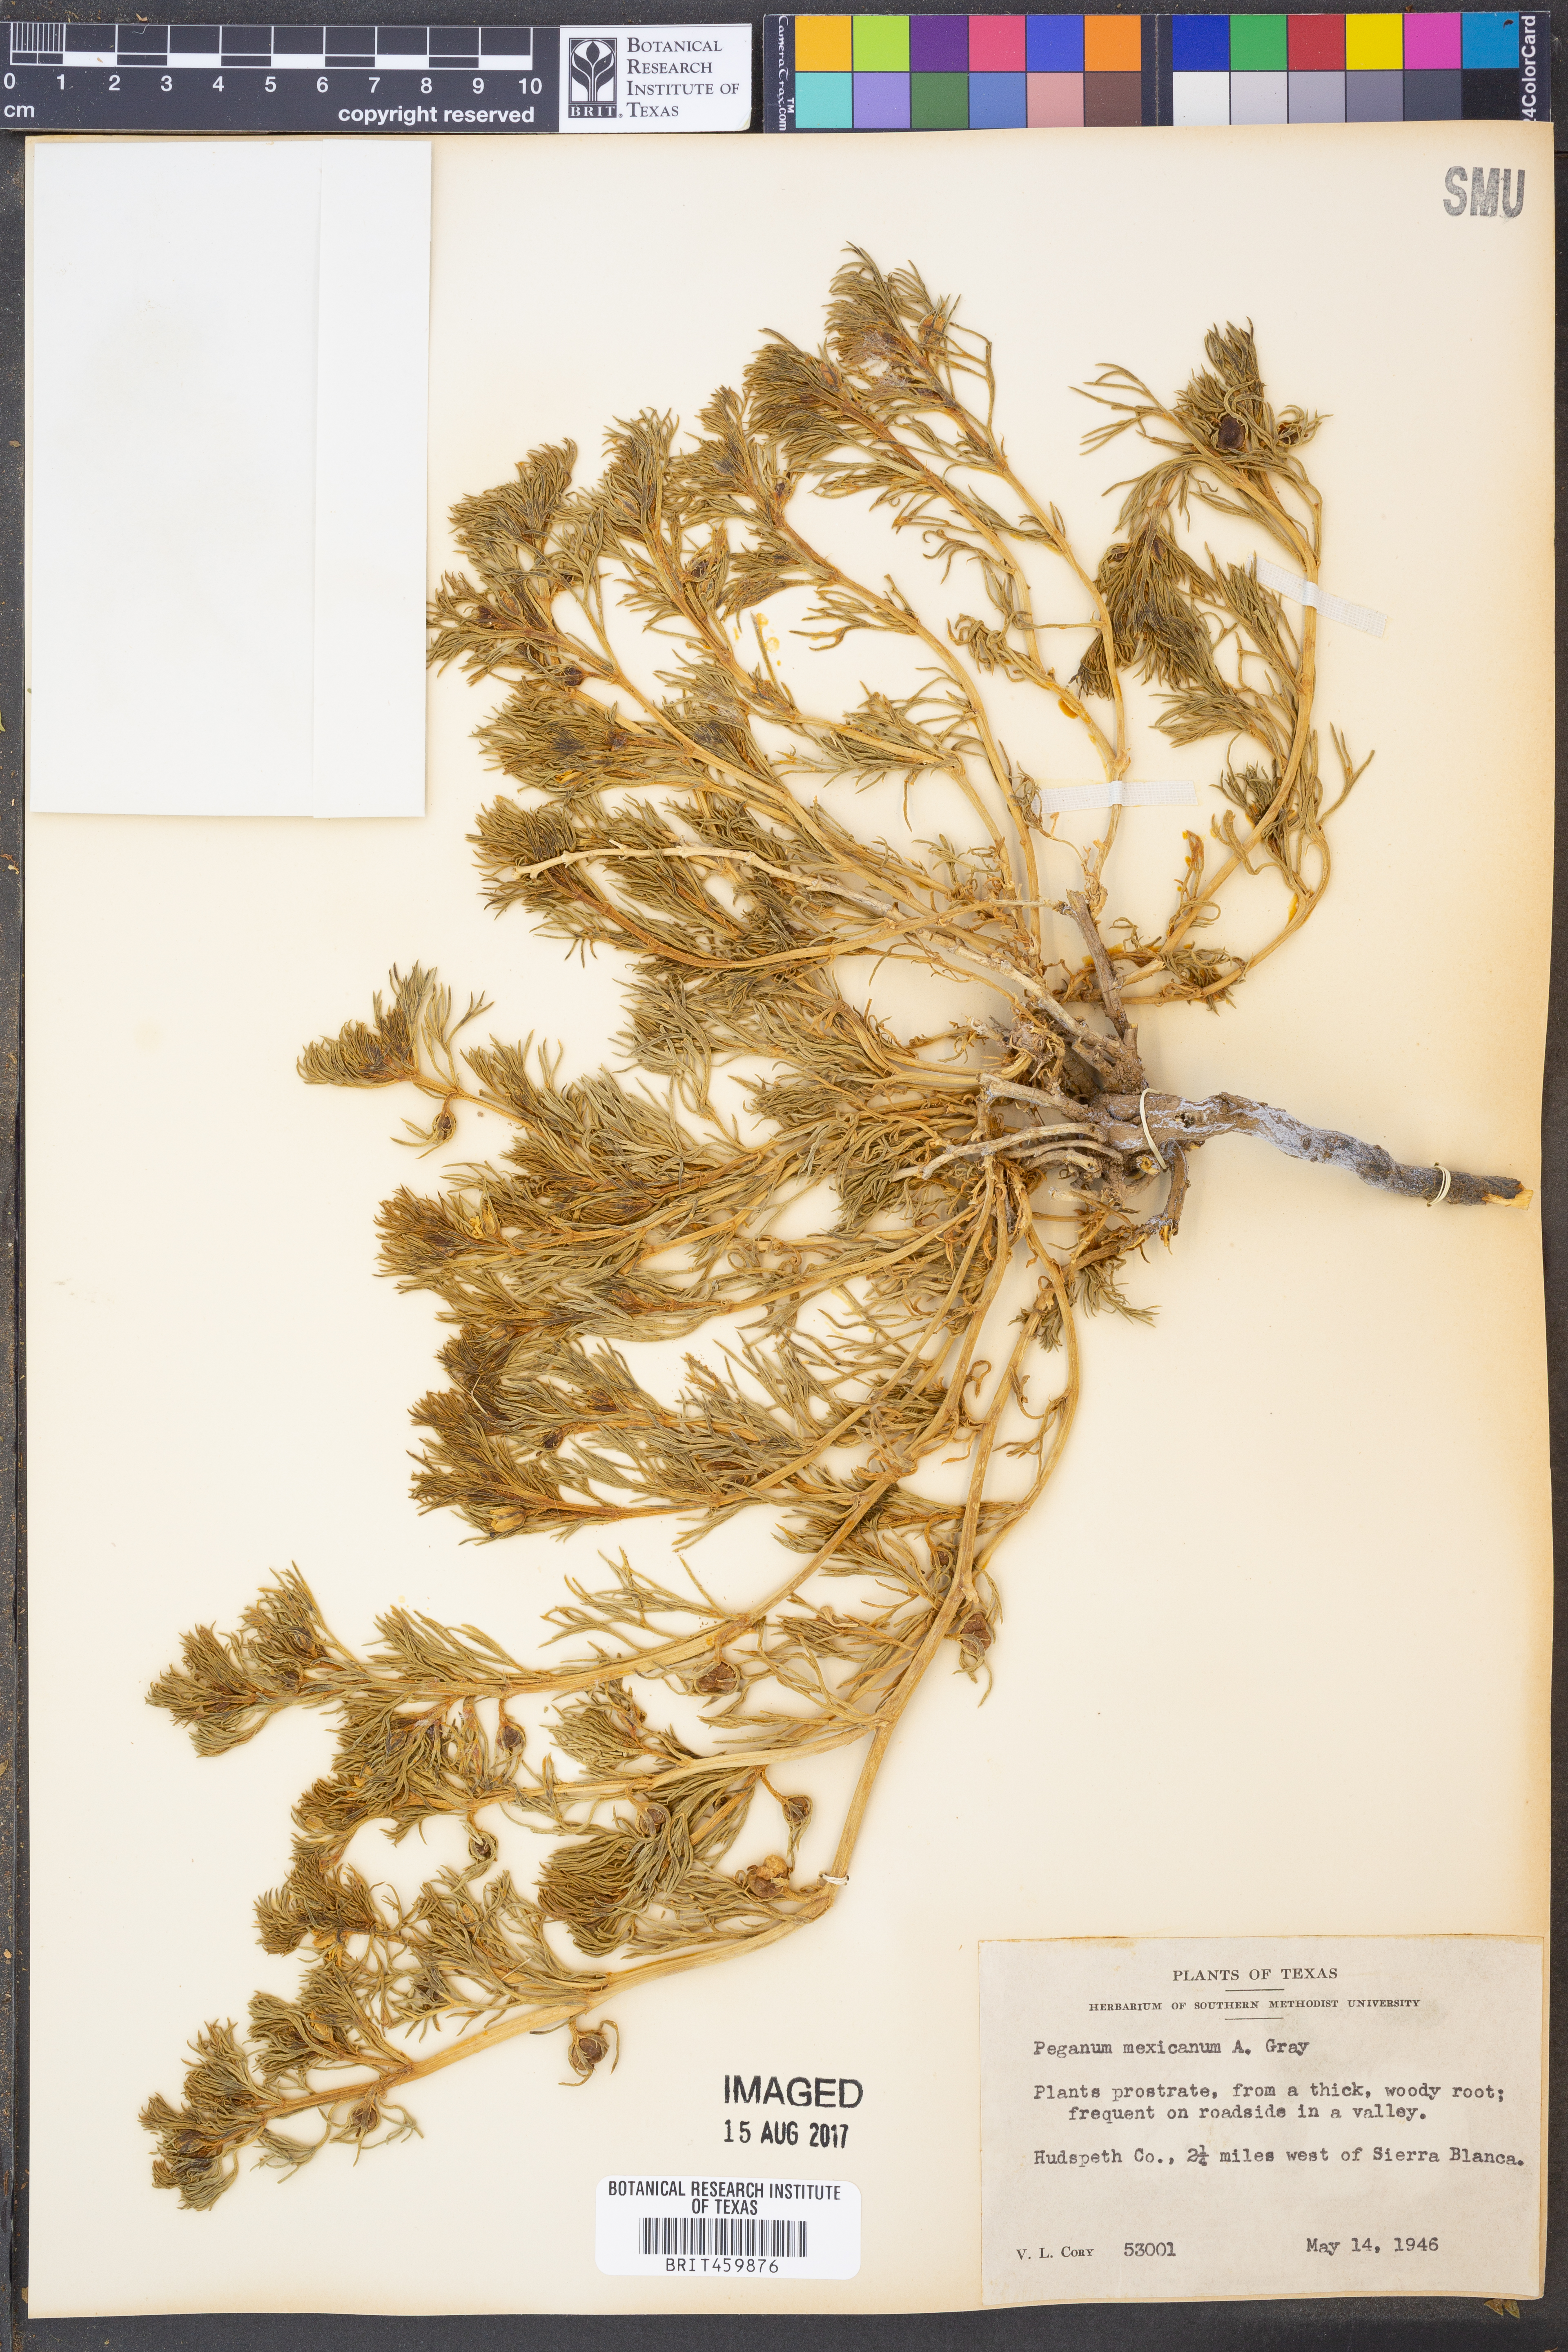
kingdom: Plantae
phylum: Tracheophyta
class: Magnoliopsida
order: Sapindales
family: Tetradiclidaceae
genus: Peganum
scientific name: Peganum mexicanum
